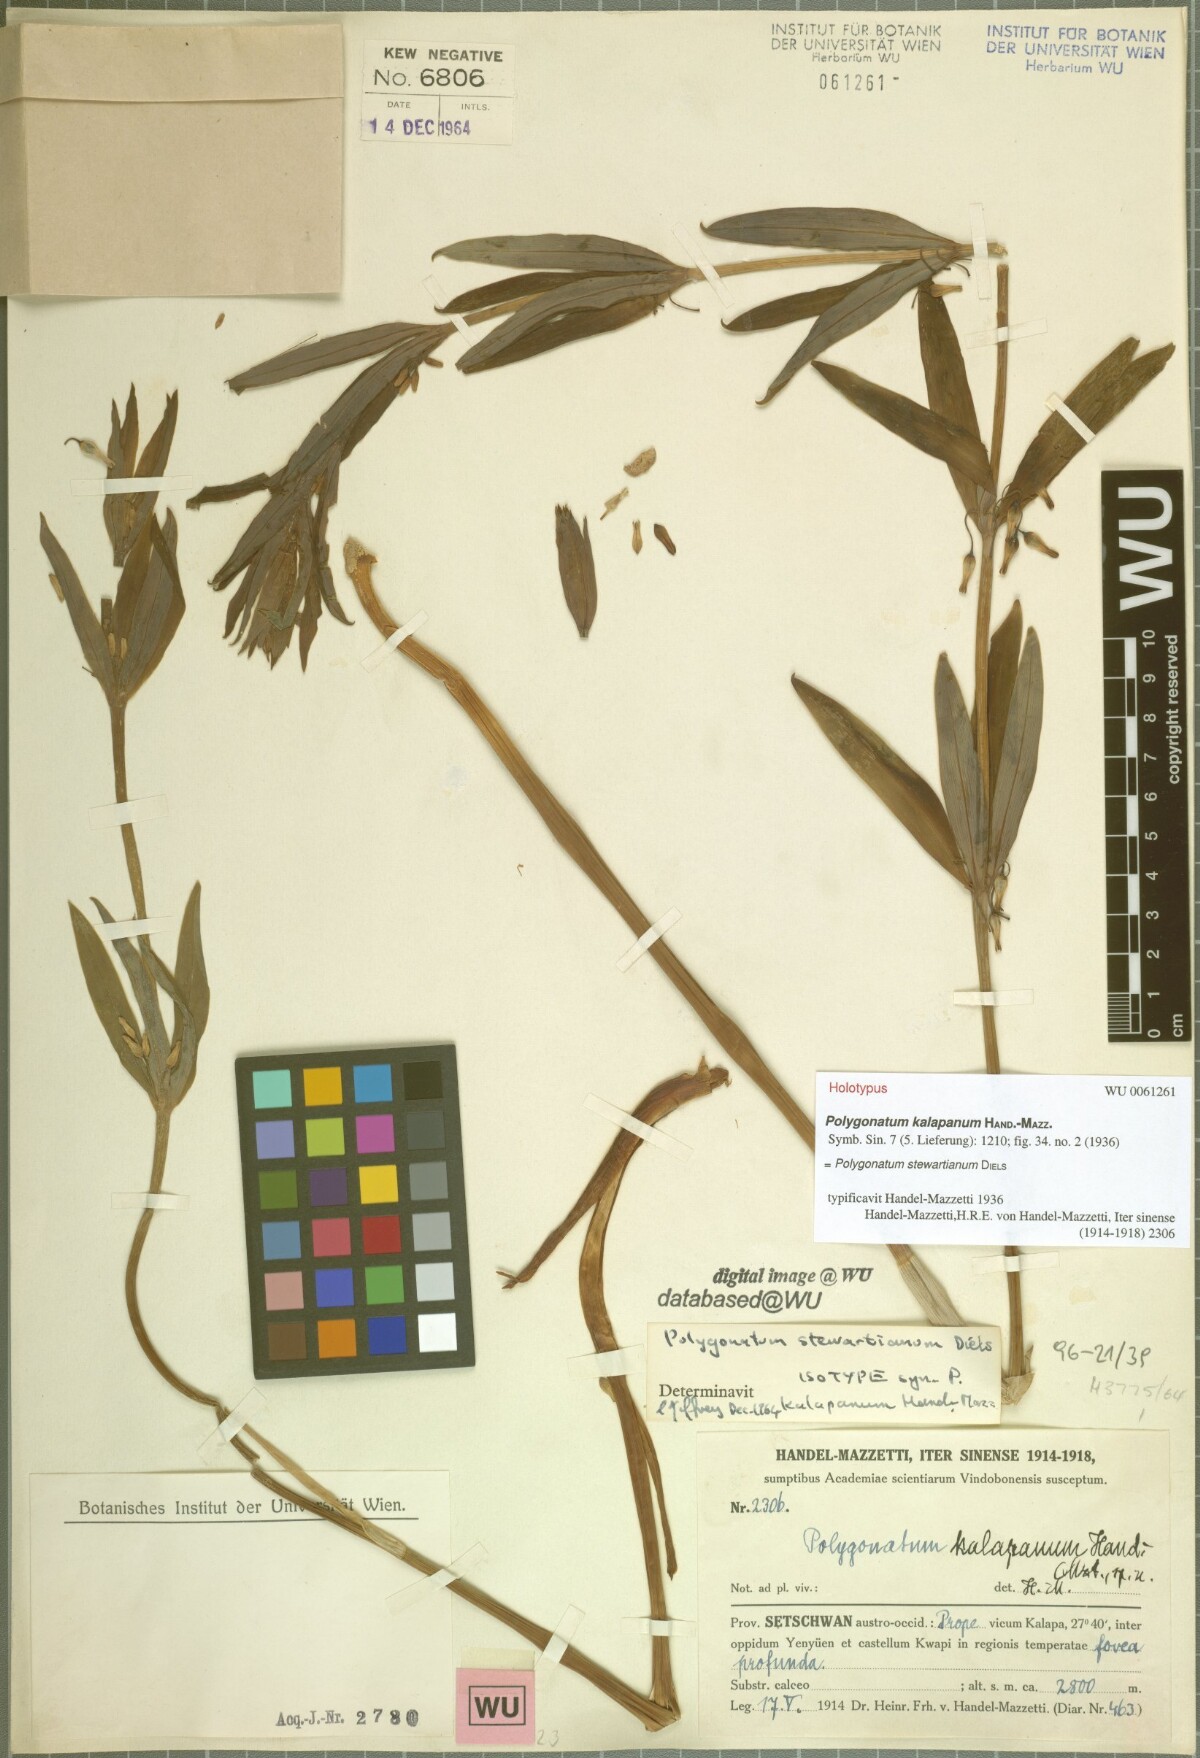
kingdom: Plantae
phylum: Tracheophyta
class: Liliopsida
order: Asparagales
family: Asparagaceae
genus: Polygonatum
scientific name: Polygonatum stewartianum
